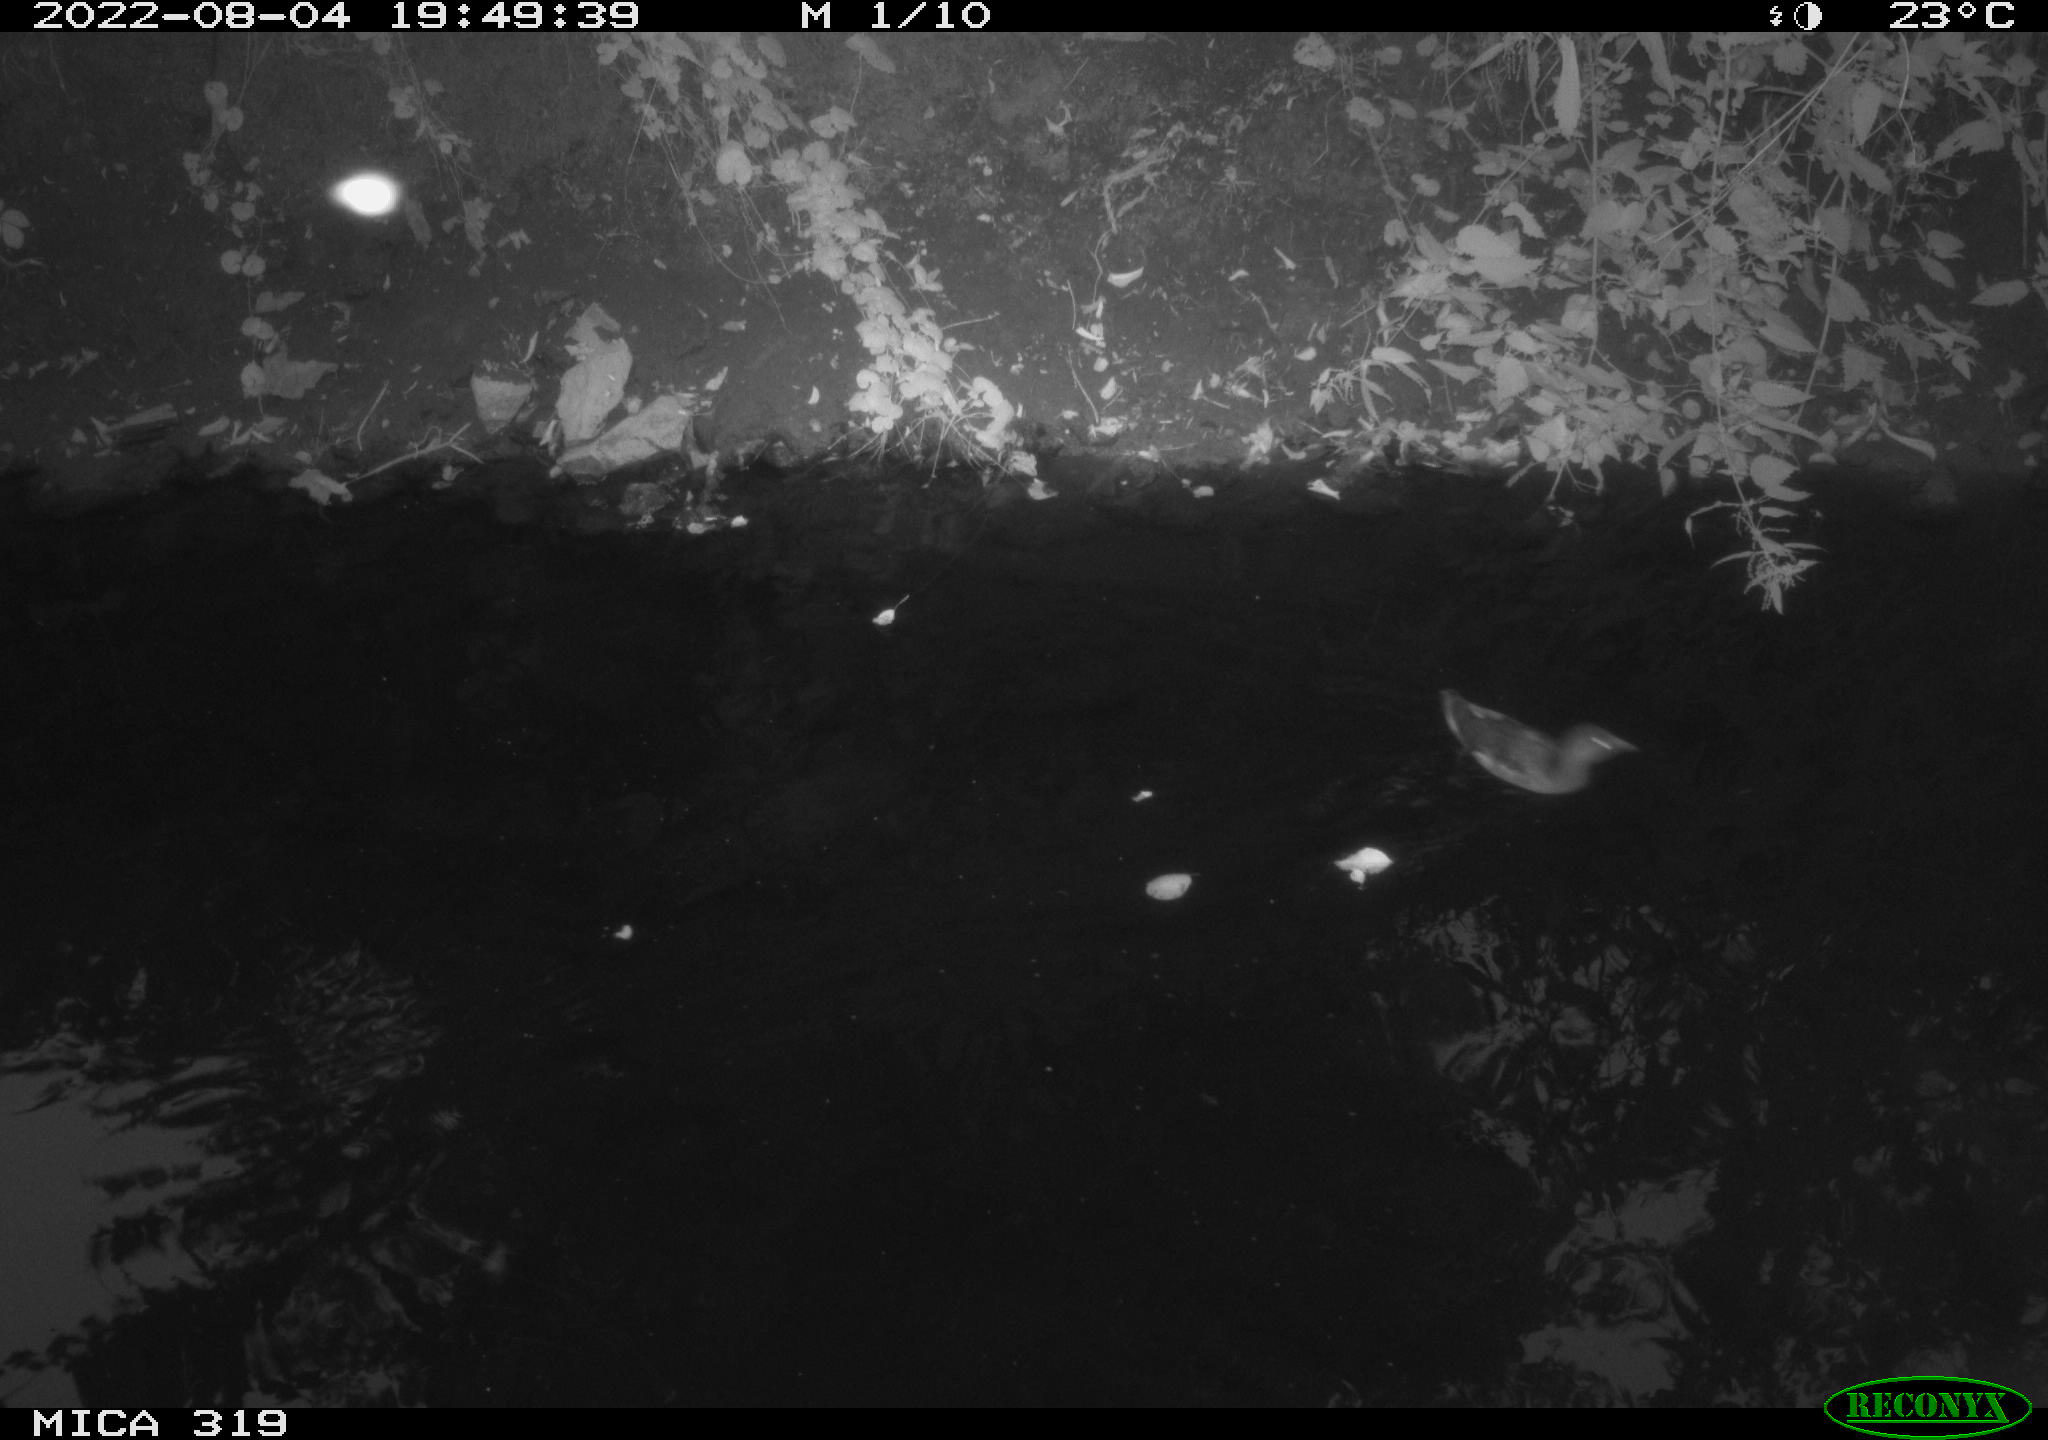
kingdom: Animalia
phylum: Chordata
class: Aves
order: Gruiformes
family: Rallidae
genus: Gallinula
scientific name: Gallinula chloropus
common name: Common moorhen
